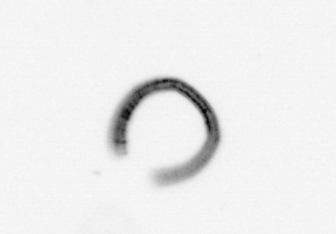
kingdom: Chromista
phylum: Ochrophyta
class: Bacillariophyceae
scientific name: Bacillariophyceae
